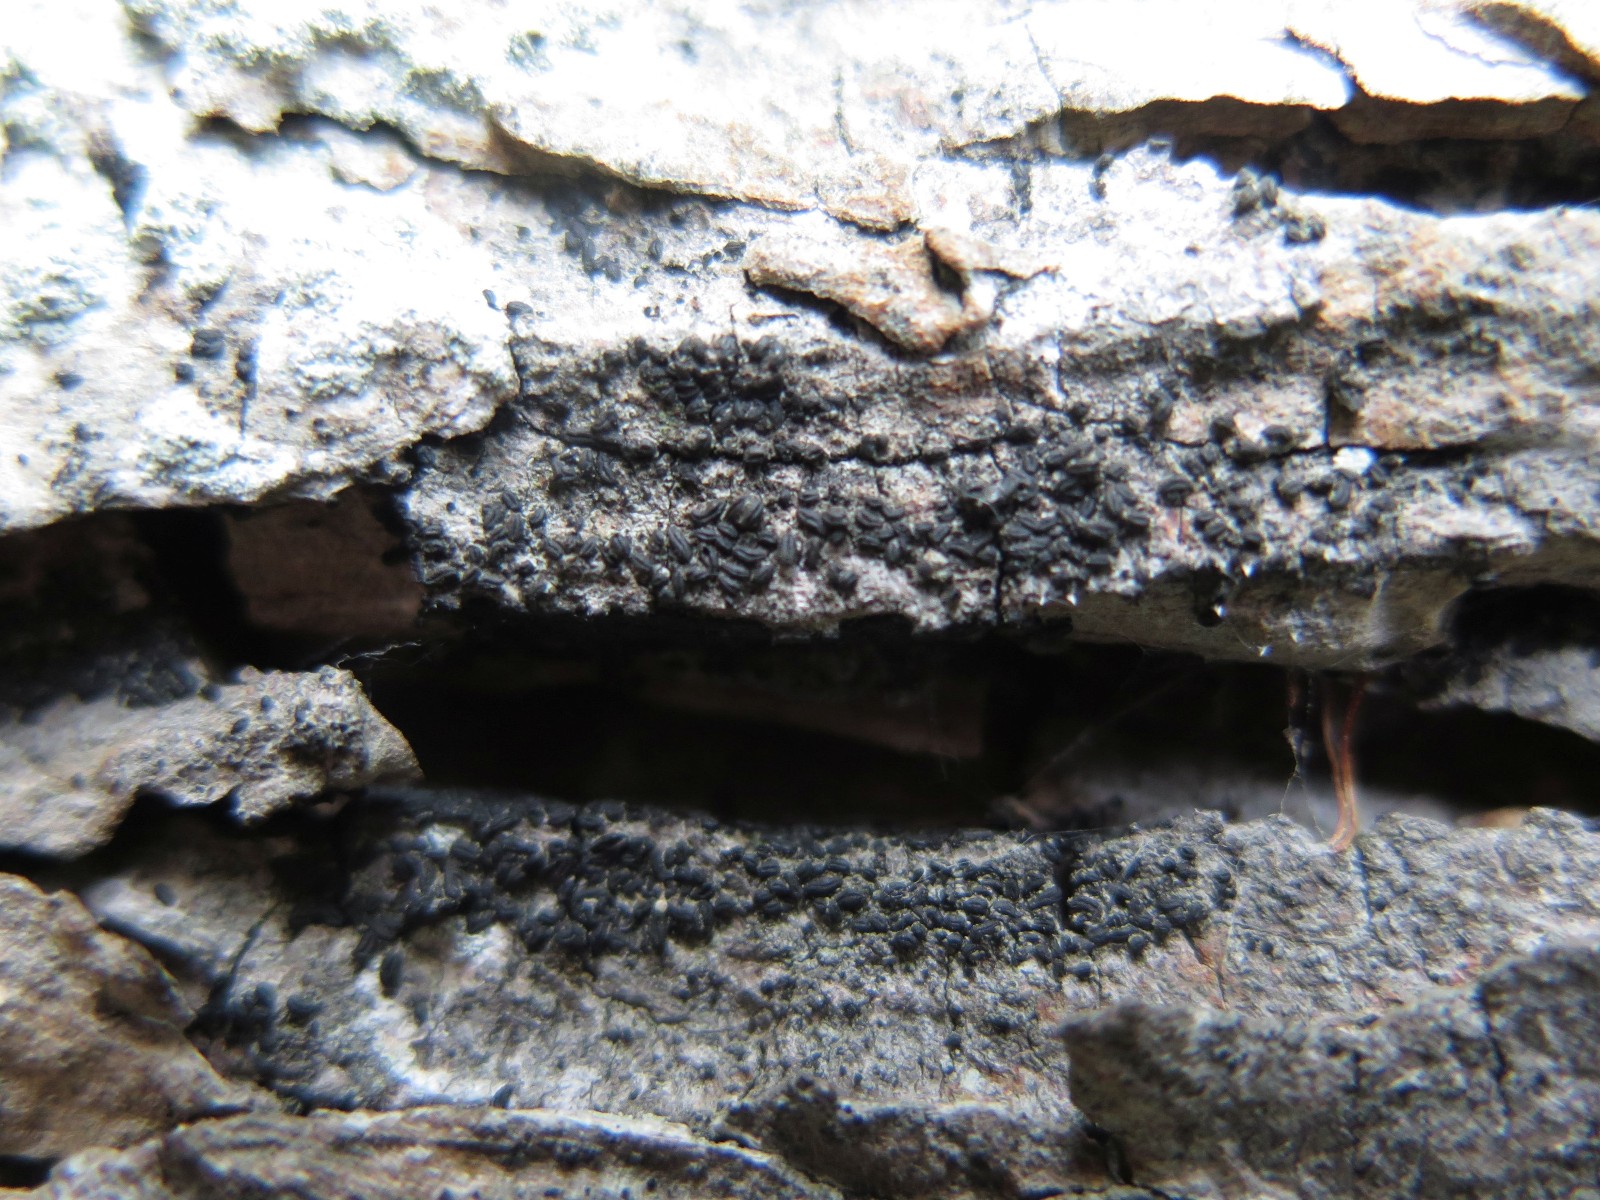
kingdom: Fungi
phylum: Ascomycota
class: Dothideomycetes
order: Hysteriales
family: Hysteriaceae
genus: Hysterium
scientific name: Hysterium pulicare
